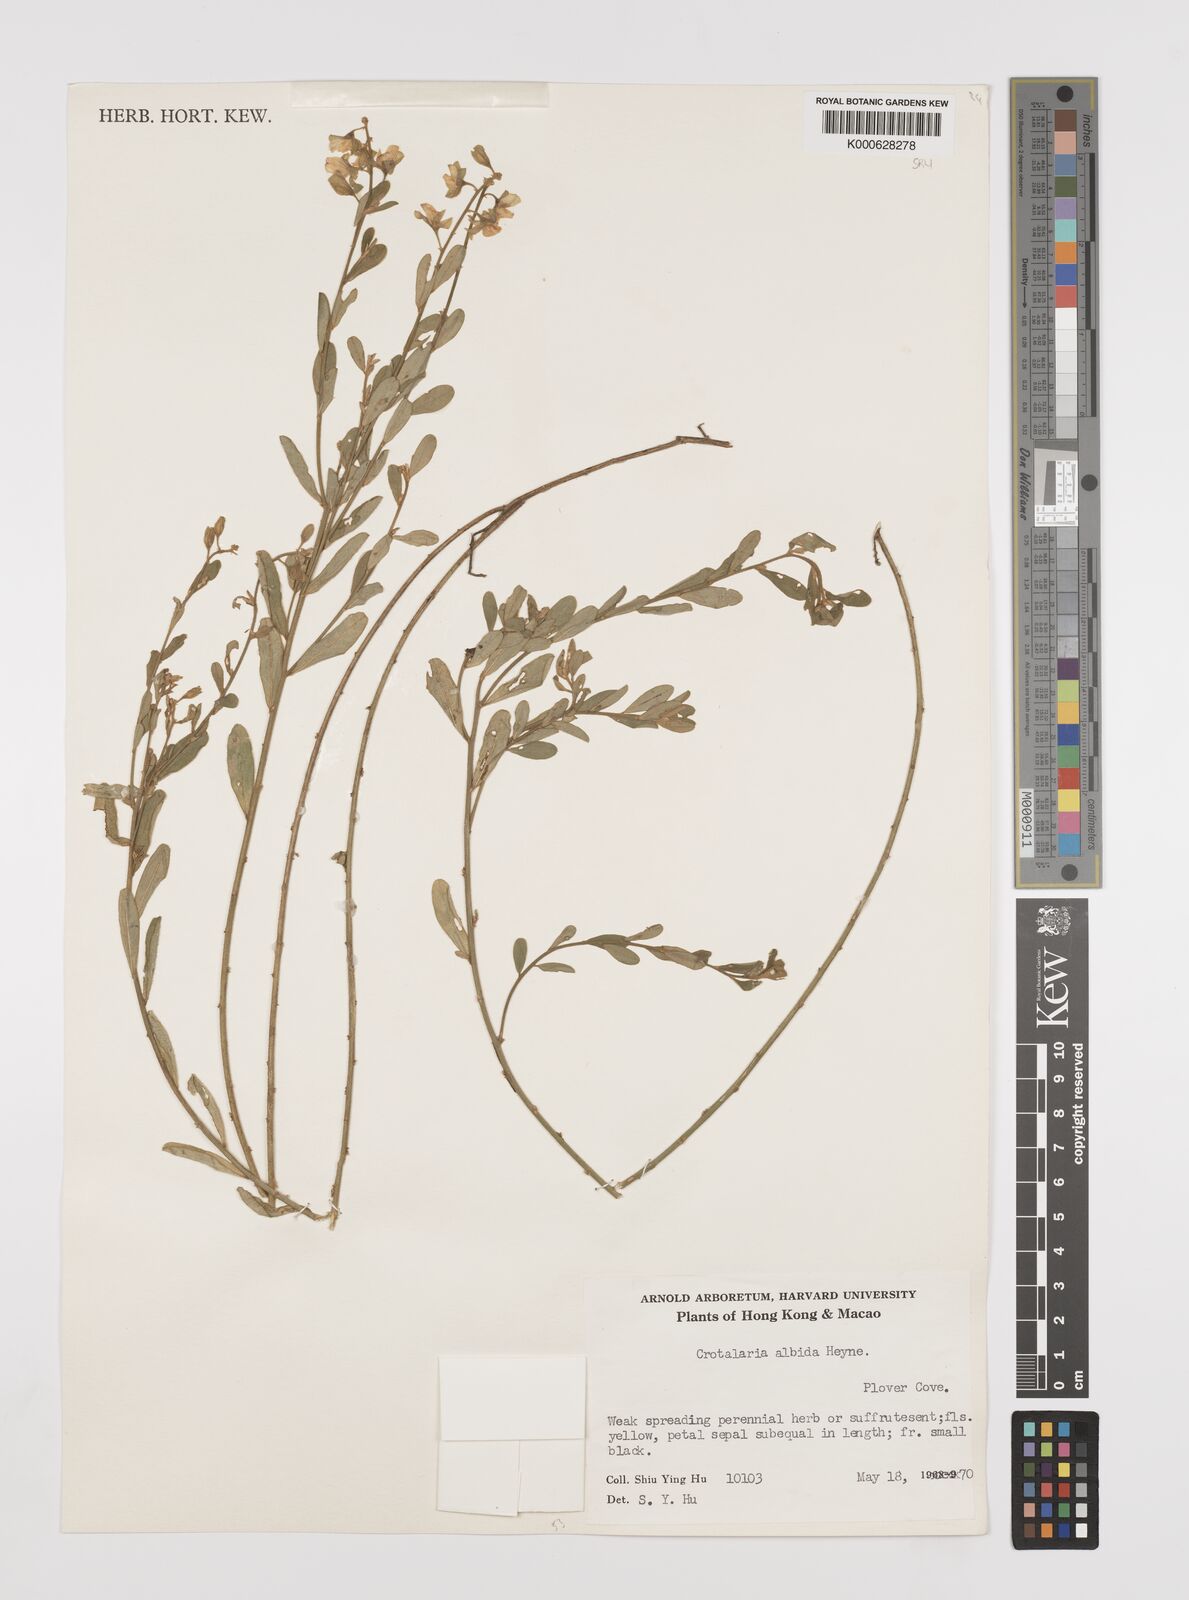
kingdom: Plantae
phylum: Tracheophyta
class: Magnoliopsida
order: Fabales
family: Fabaceae
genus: Crotalaria
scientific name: Crotalaria albida
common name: Taiwan crotalaria
